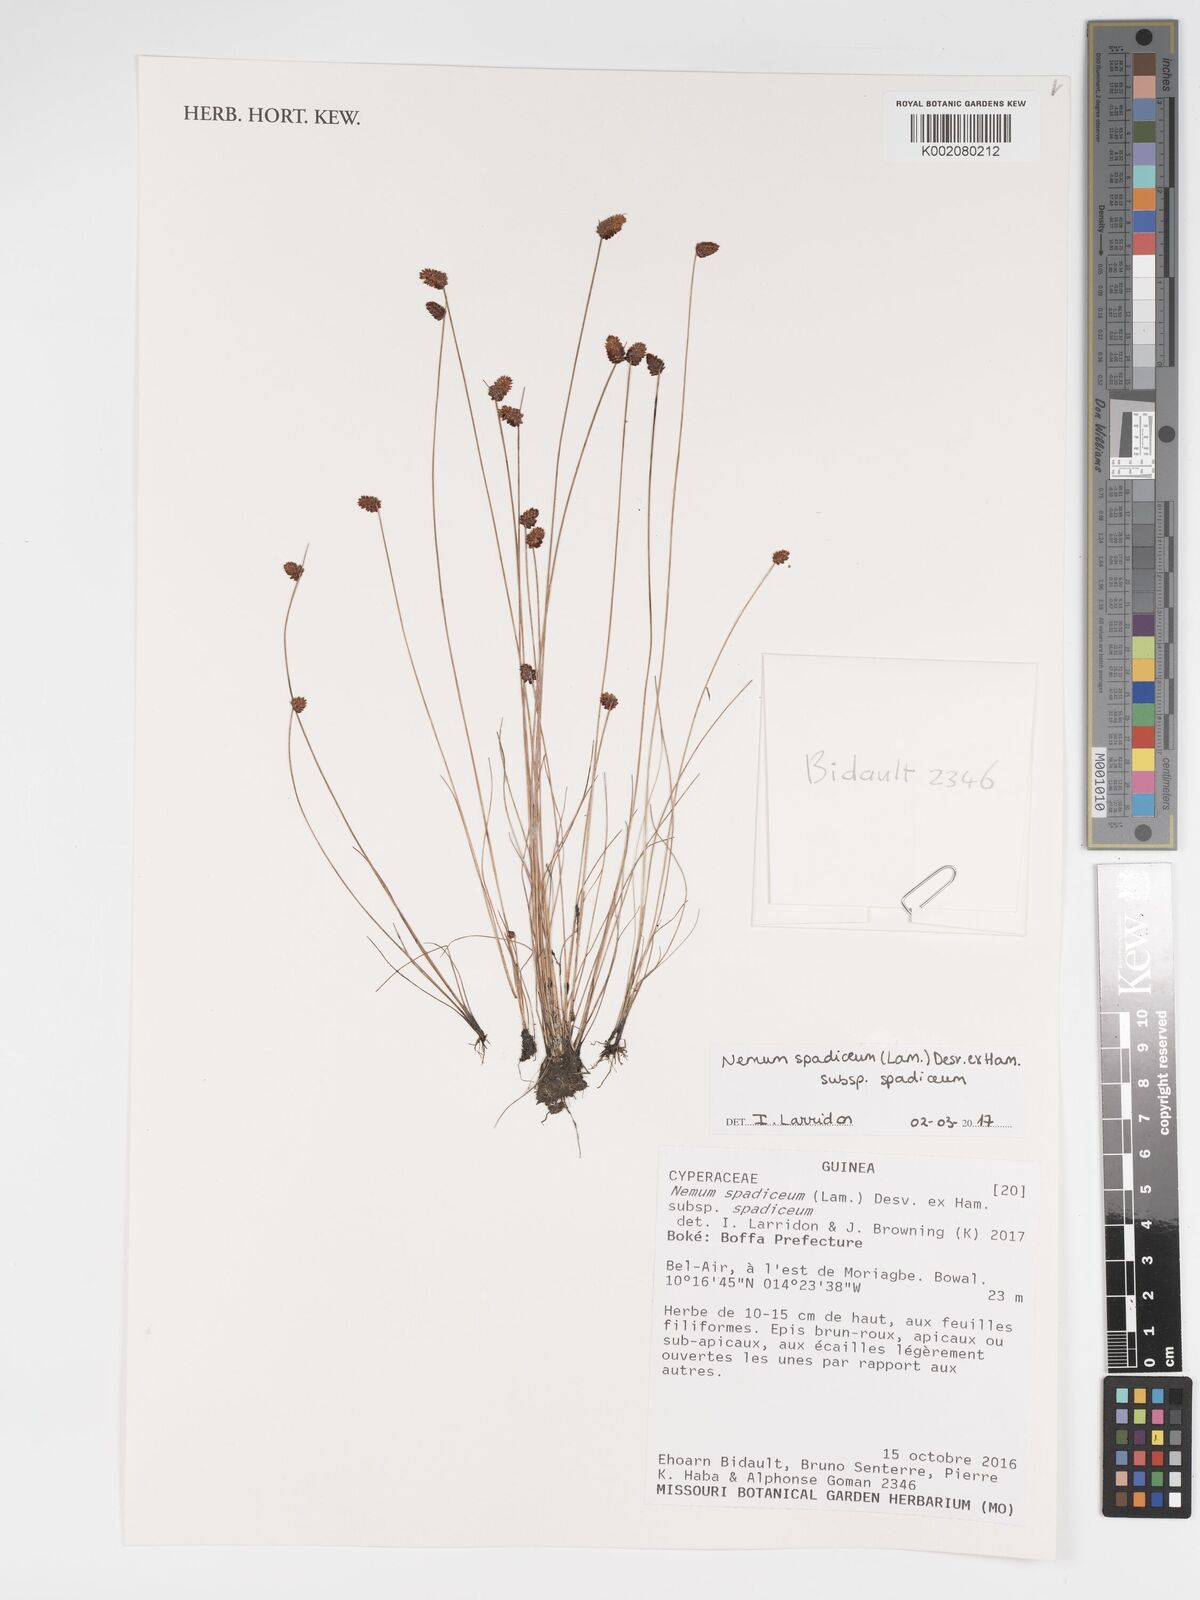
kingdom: Plantae
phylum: Tracheophyta
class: Liliopsida
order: Poales
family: Cyperaceae
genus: Bulbostylis
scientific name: Bulbostylis briziformis
